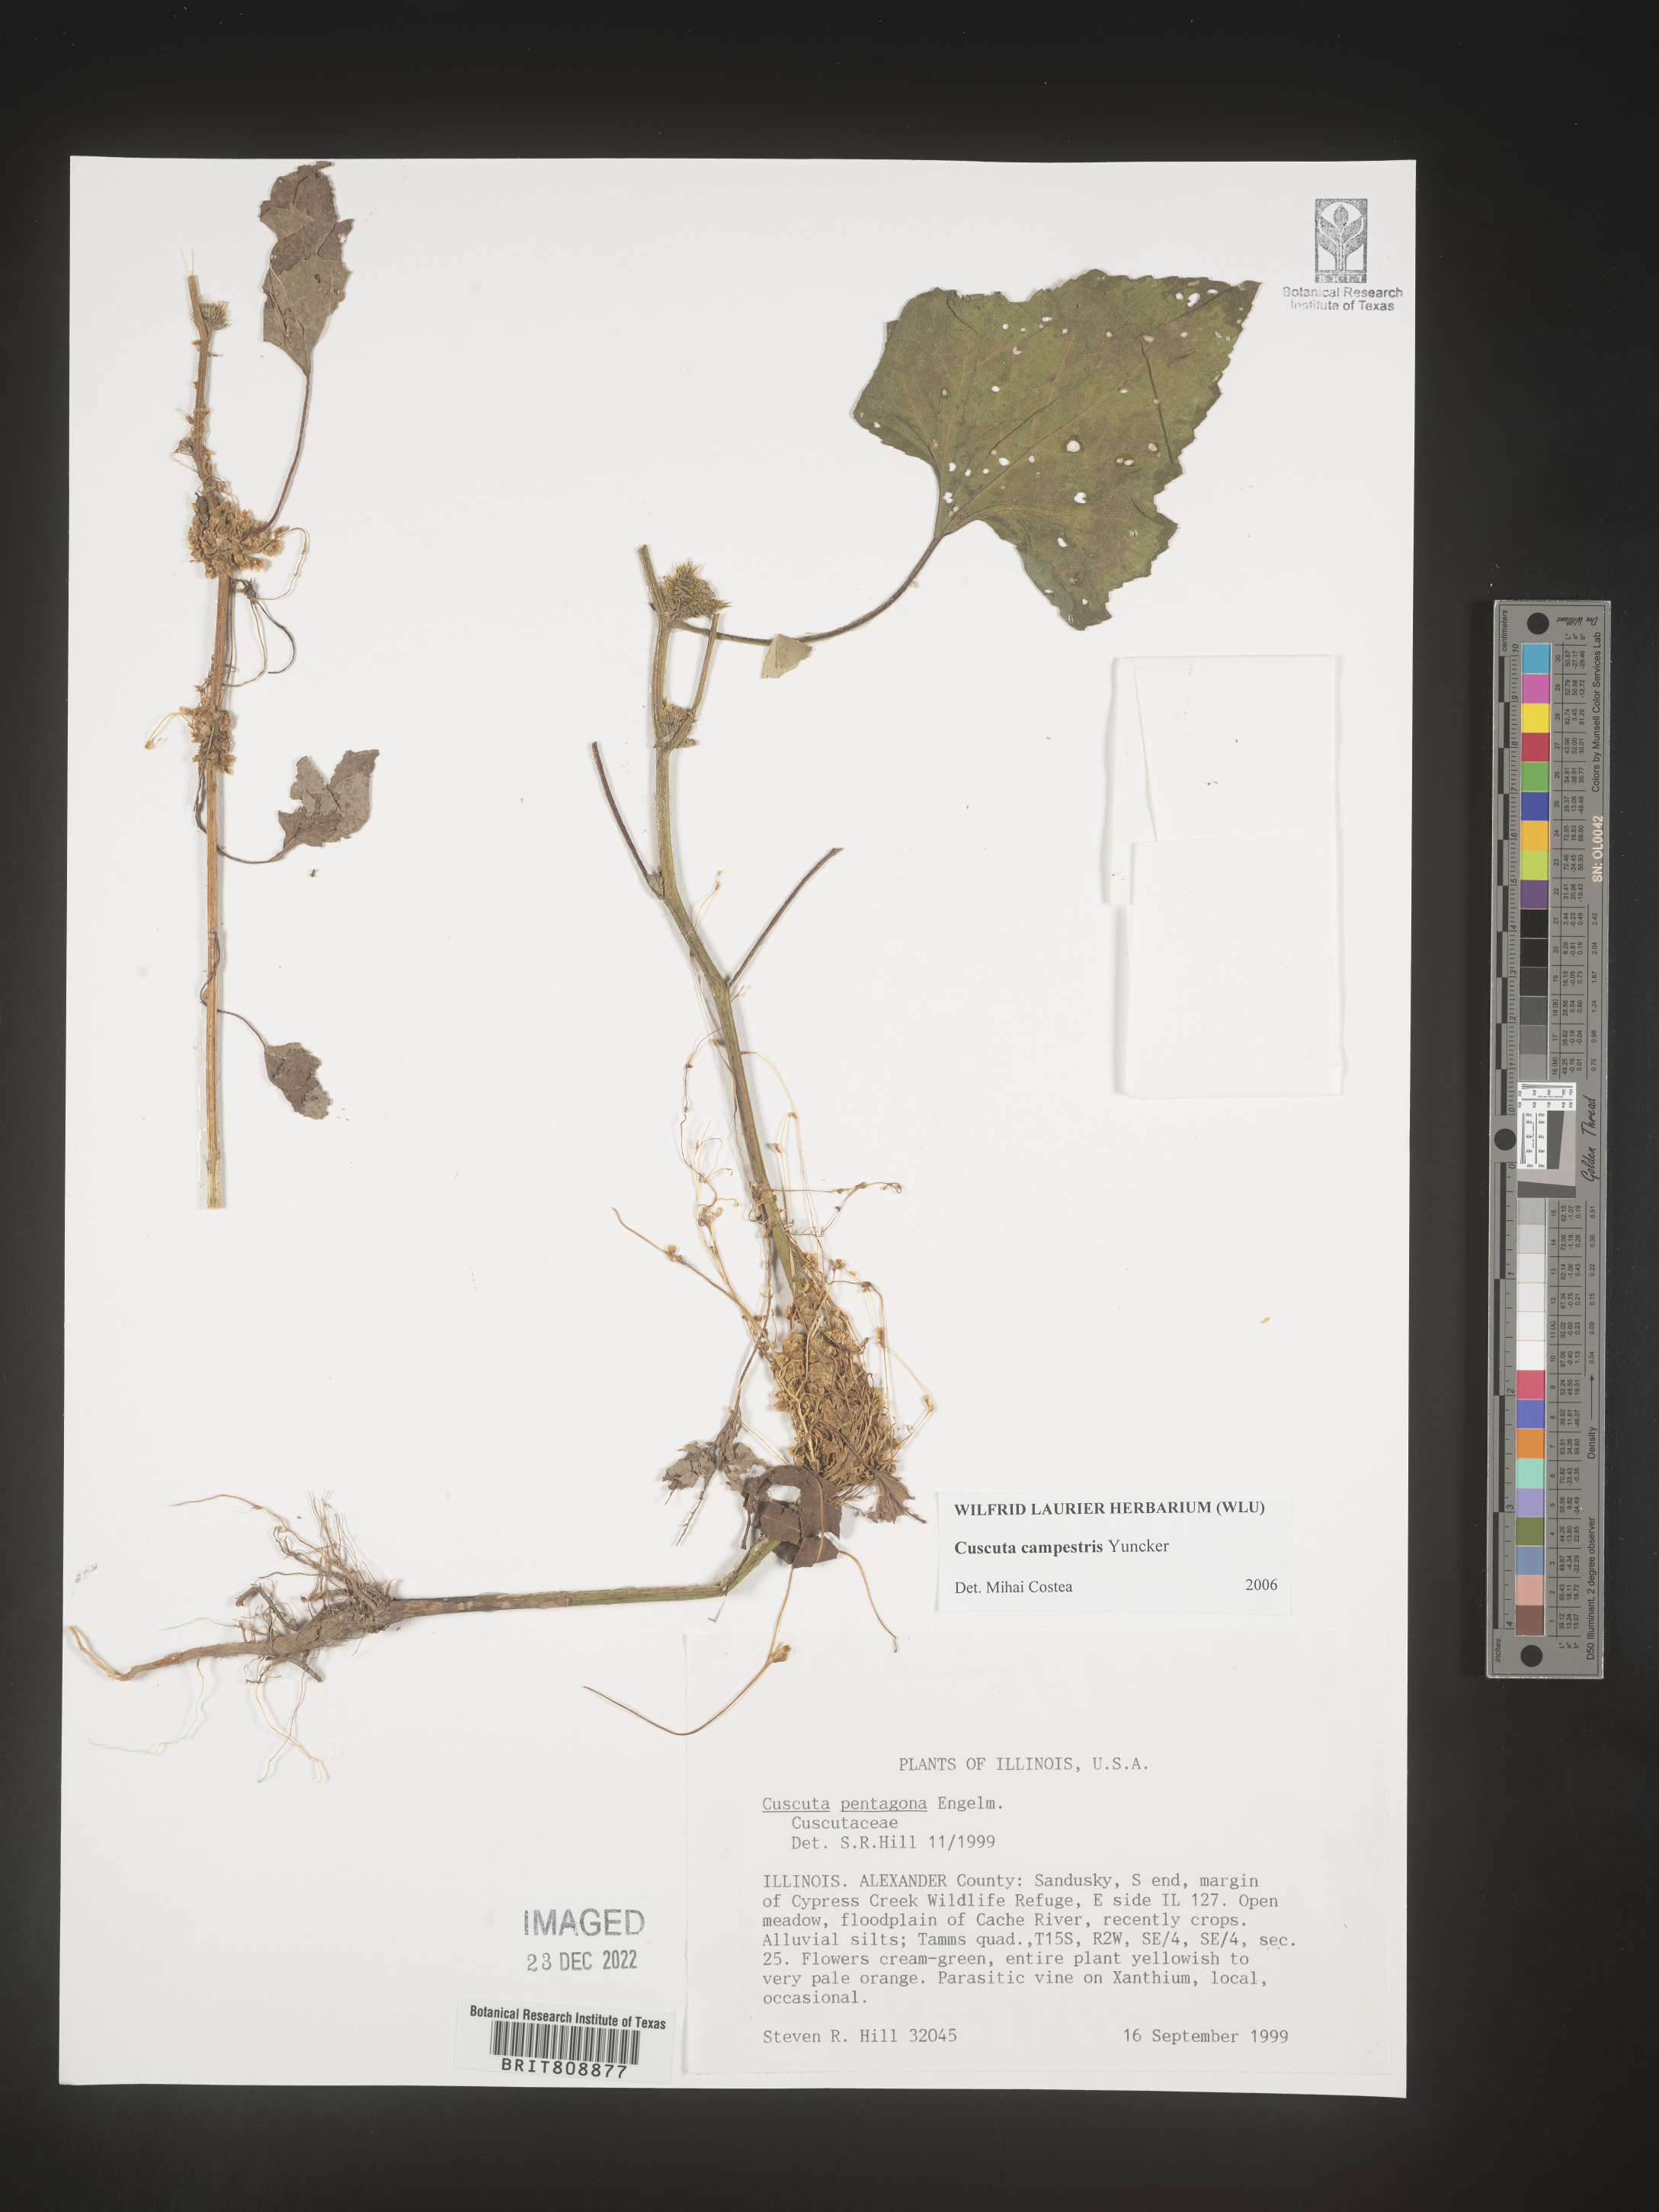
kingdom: Plantae
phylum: Tracheophyta
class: Magnoliopsida
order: Solanales
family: Convolvulaceae
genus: Cuscuta
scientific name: Cuscuta campestris
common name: Yellow dodder
